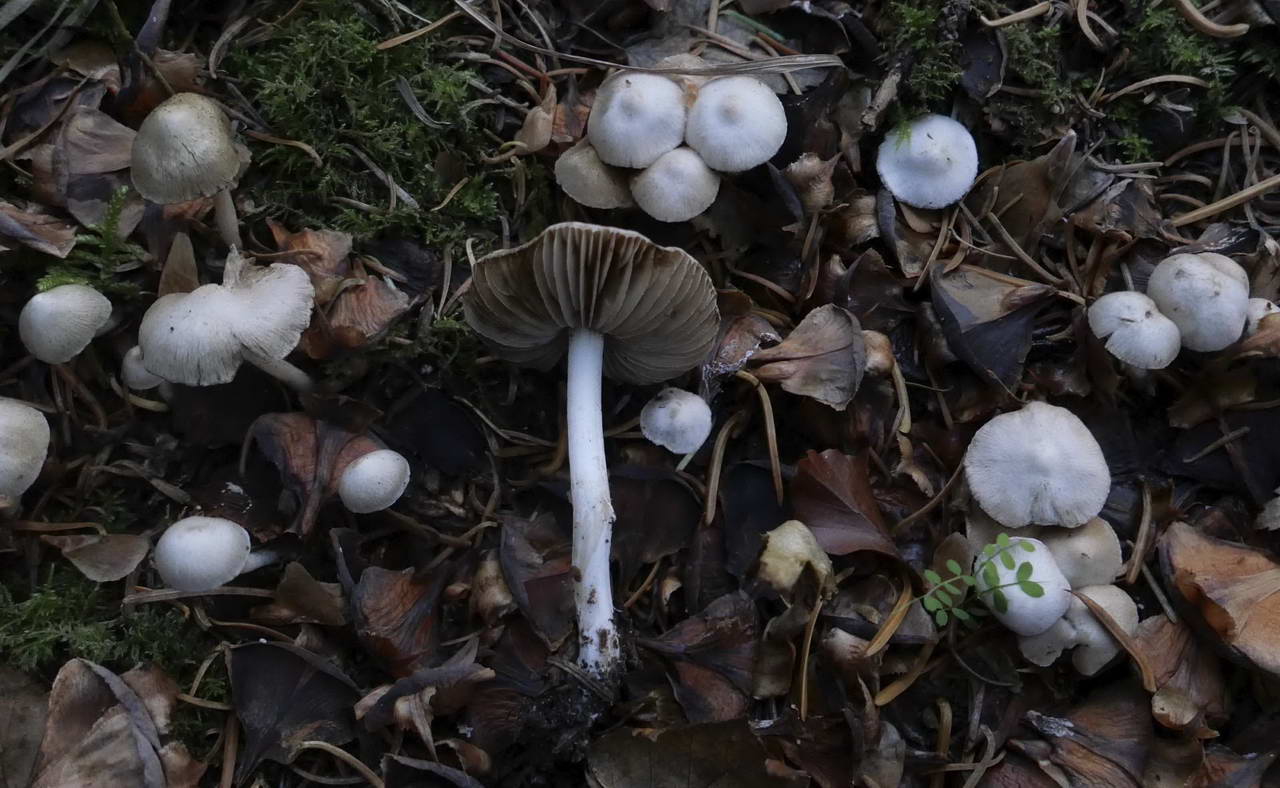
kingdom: Fungi
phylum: Basidiomycota
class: Agaricomycetes
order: Agaricales
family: Inocybaceae
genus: Inocybe
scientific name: Inocybe
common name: trævlhat
